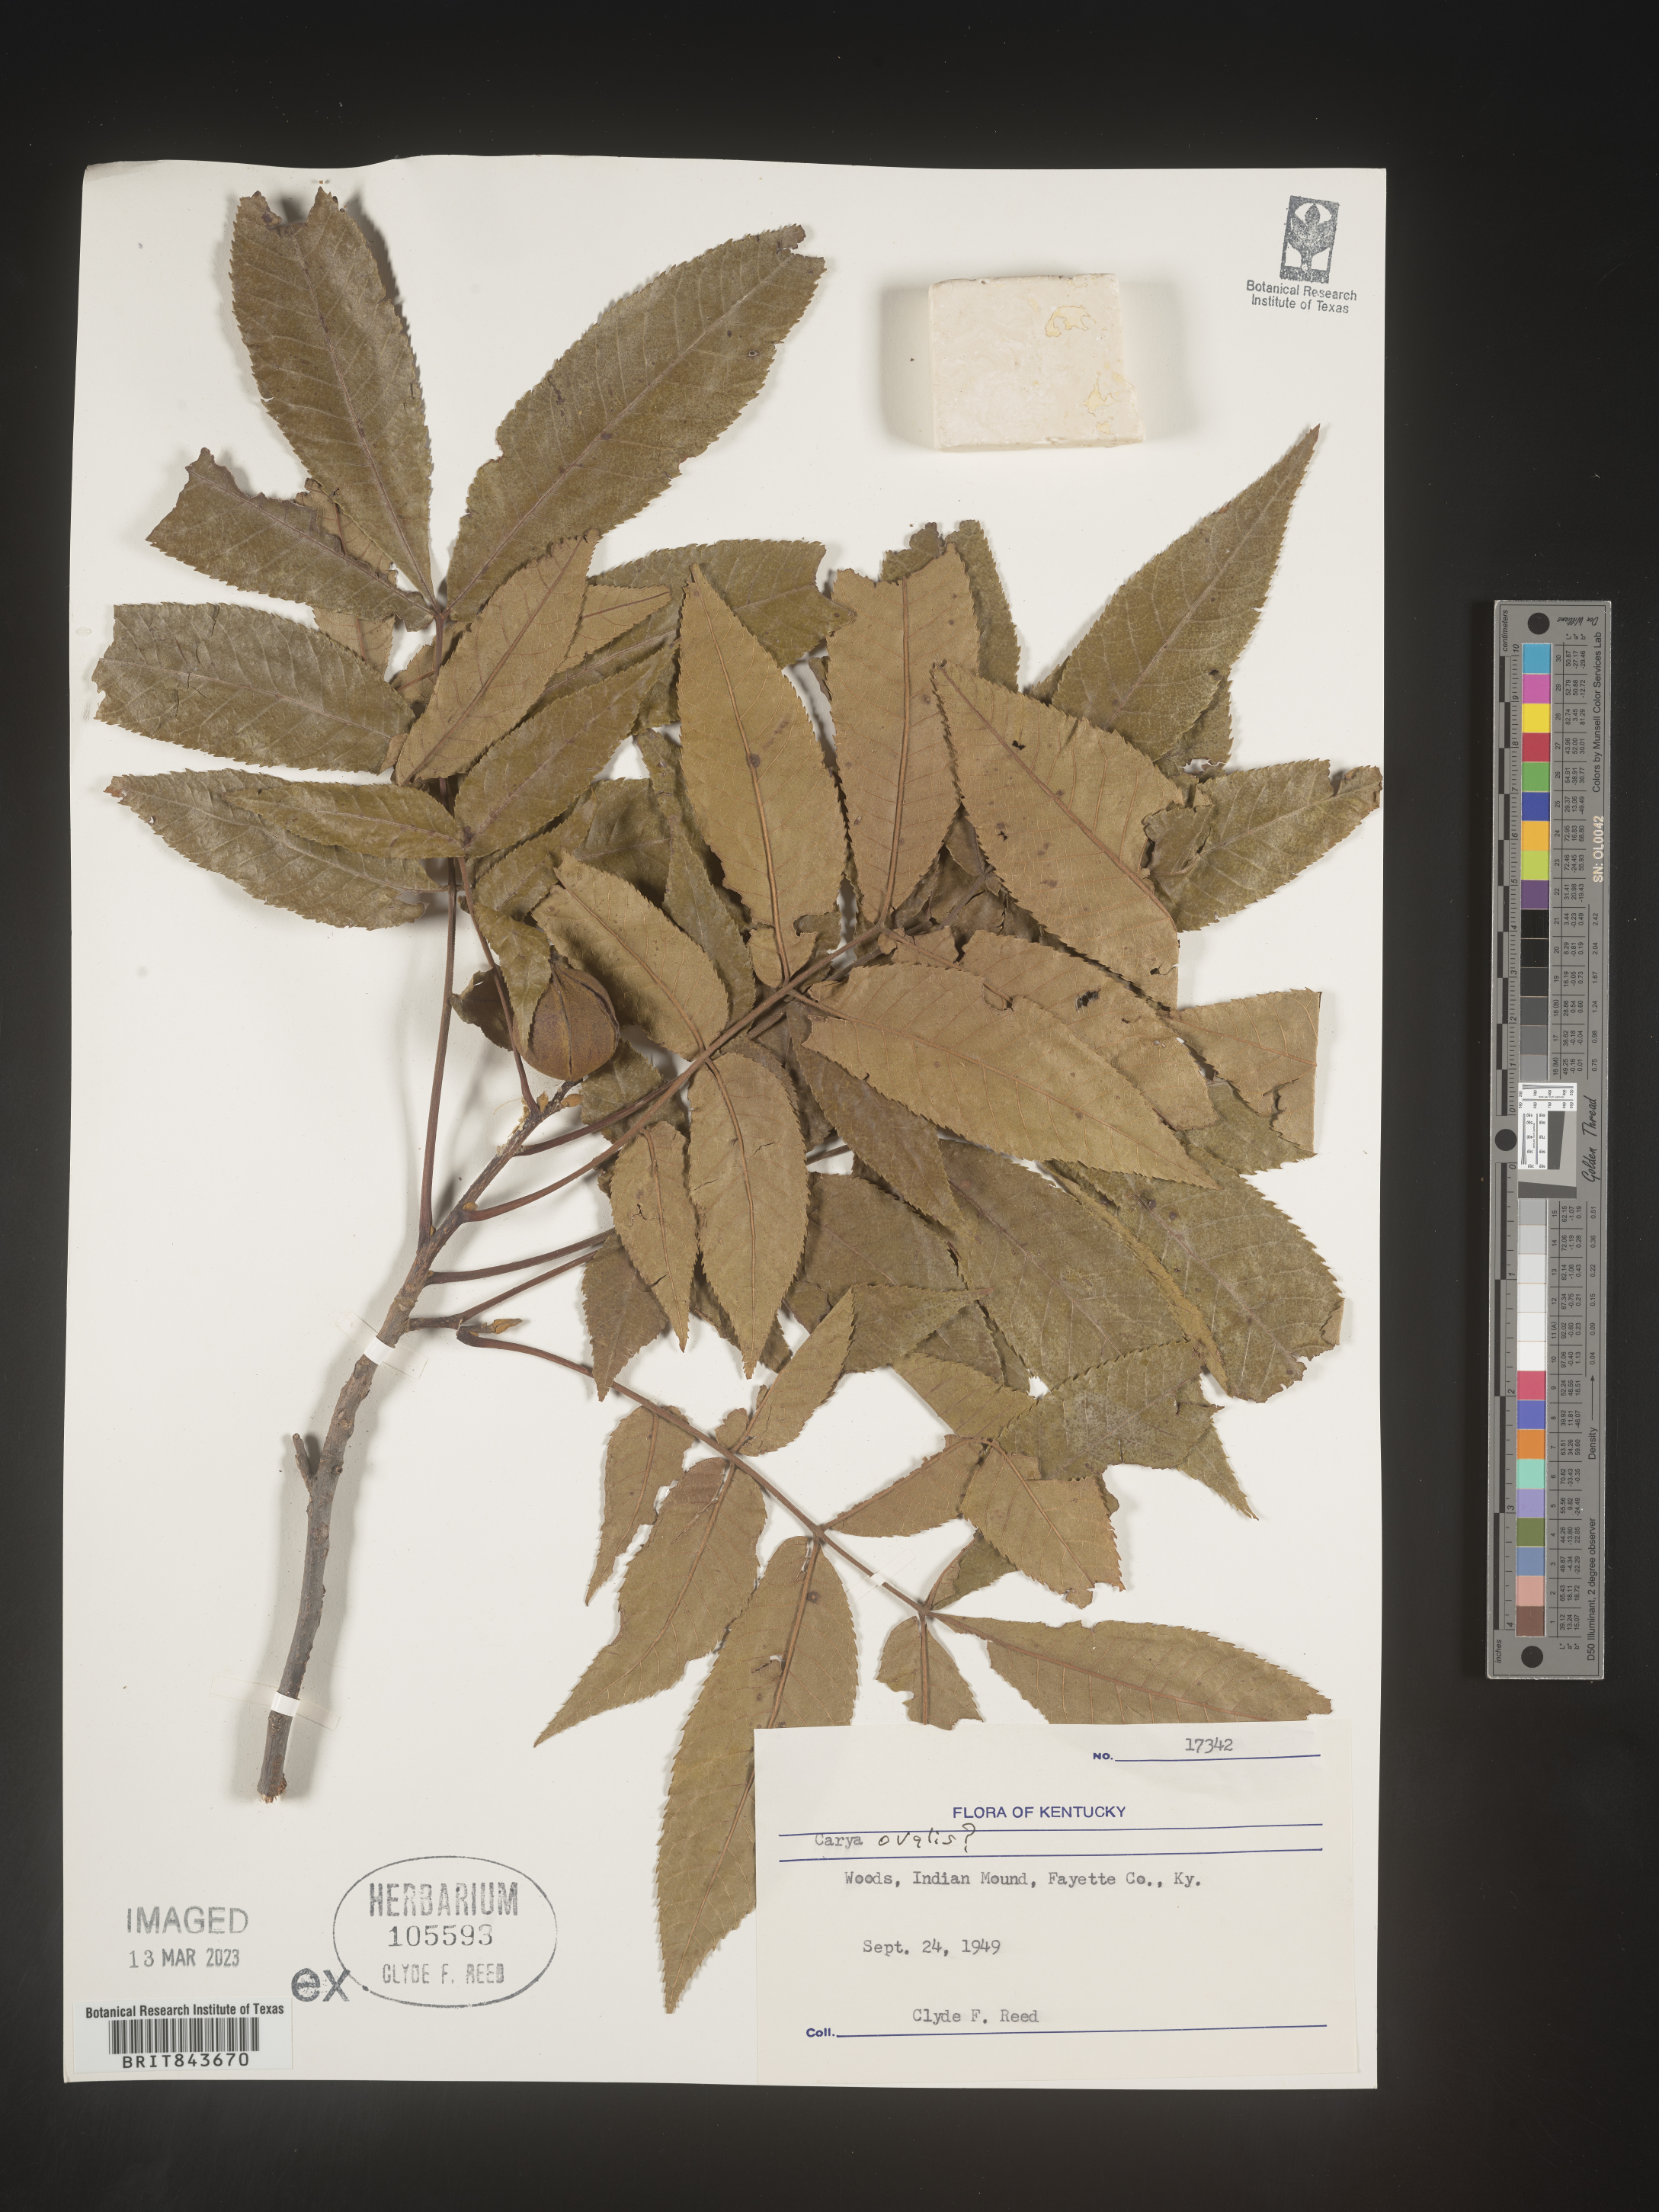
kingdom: Plantae
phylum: Tracheophyta
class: Magnoliopsida
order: Fagales
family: Juglandaceae
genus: Carya
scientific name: Carya ovata
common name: Shagbark hickory
